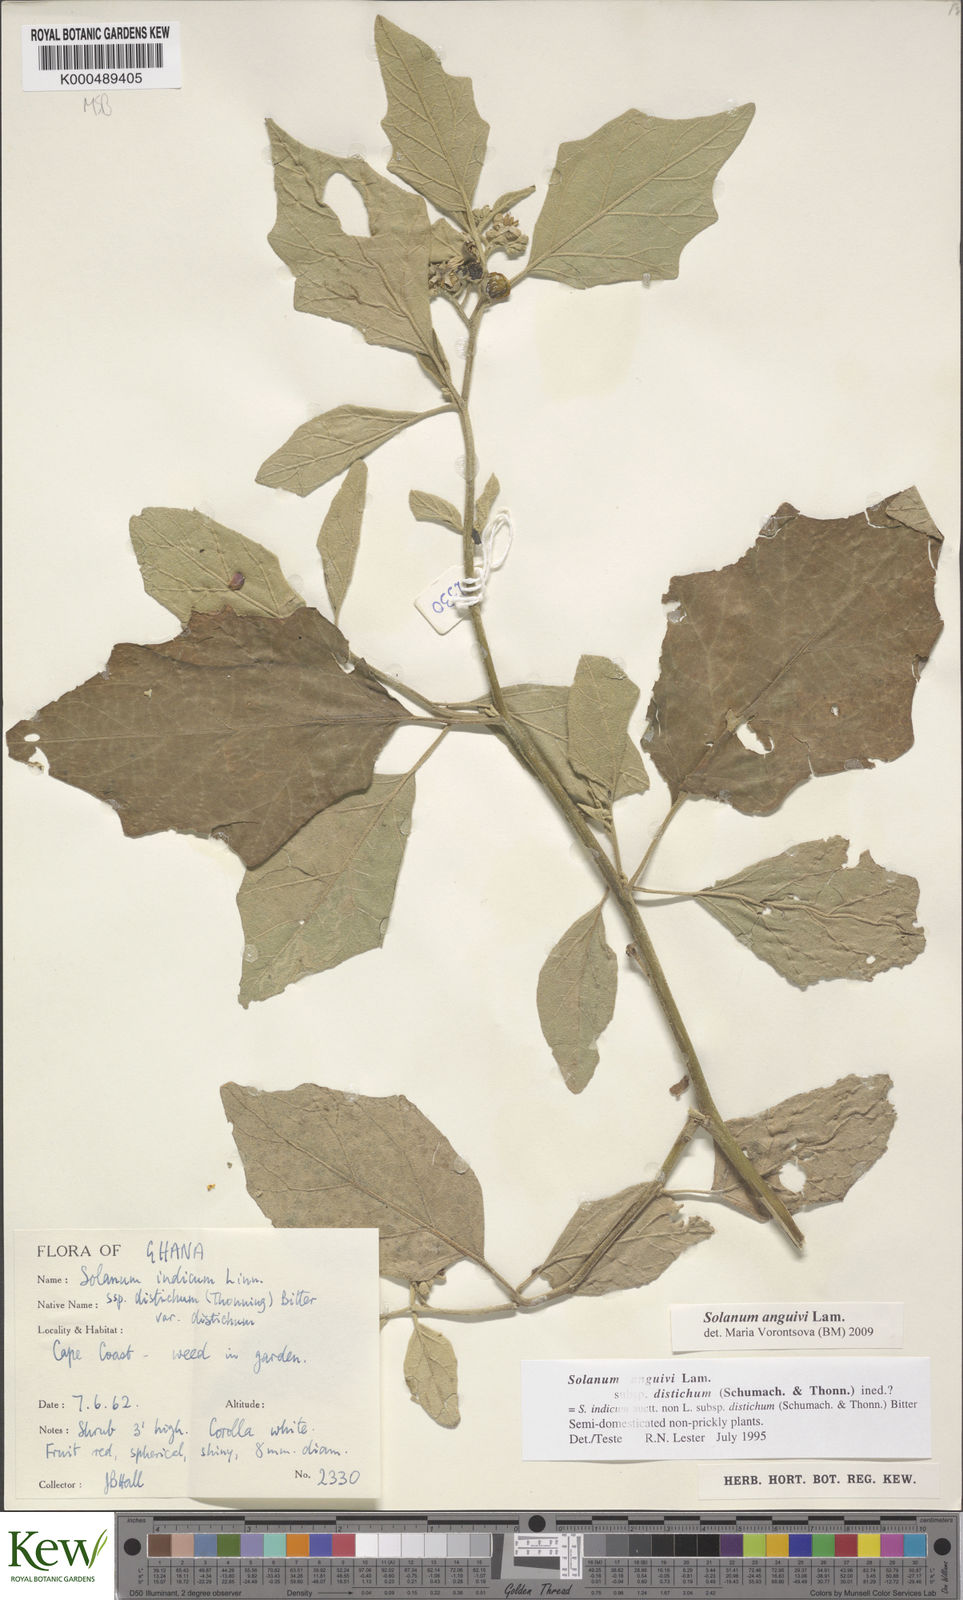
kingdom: Plantae
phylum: Tracheophyta
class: Magnoliopsida
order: Solanales
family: Solanaceae
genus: Solanum
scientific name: Solanum anguivi
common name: Forest bitterberry
